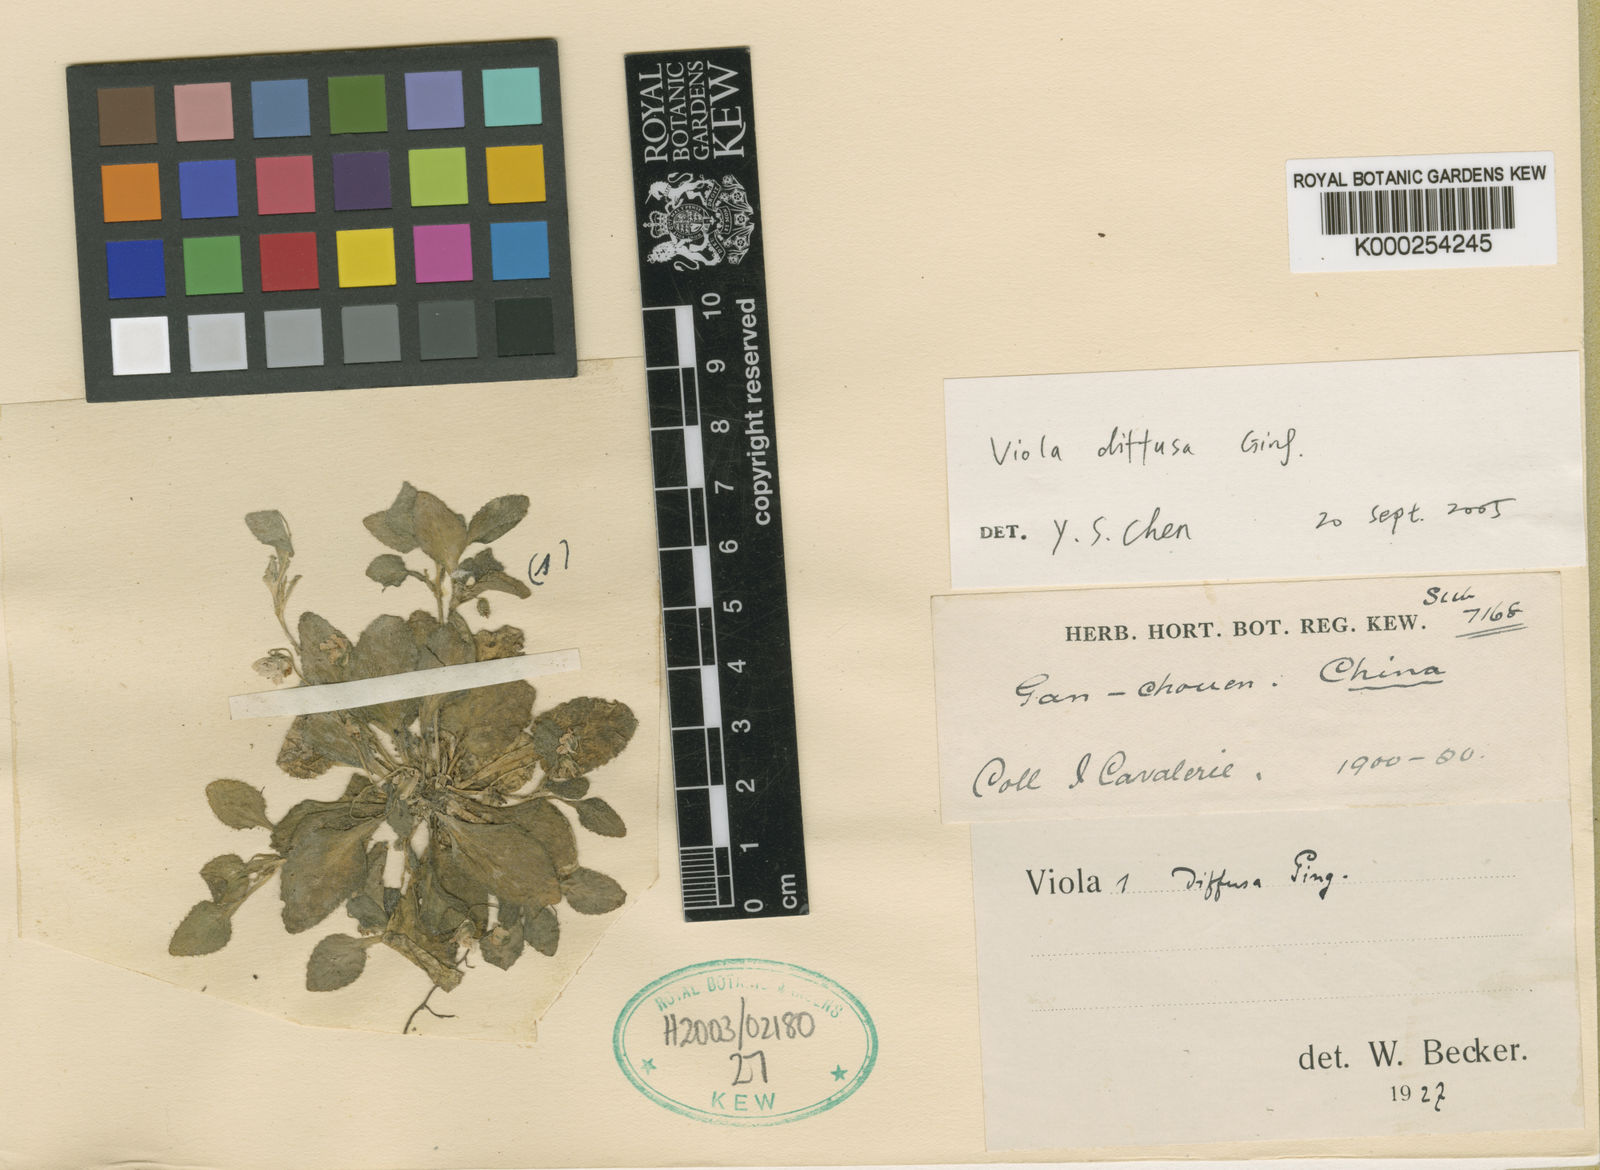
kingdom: Plantae
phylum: Tracheophyta
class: Magnoliopsida
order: Malpighiales
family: Violaceae
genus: Viola
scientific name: Viola diffusa
